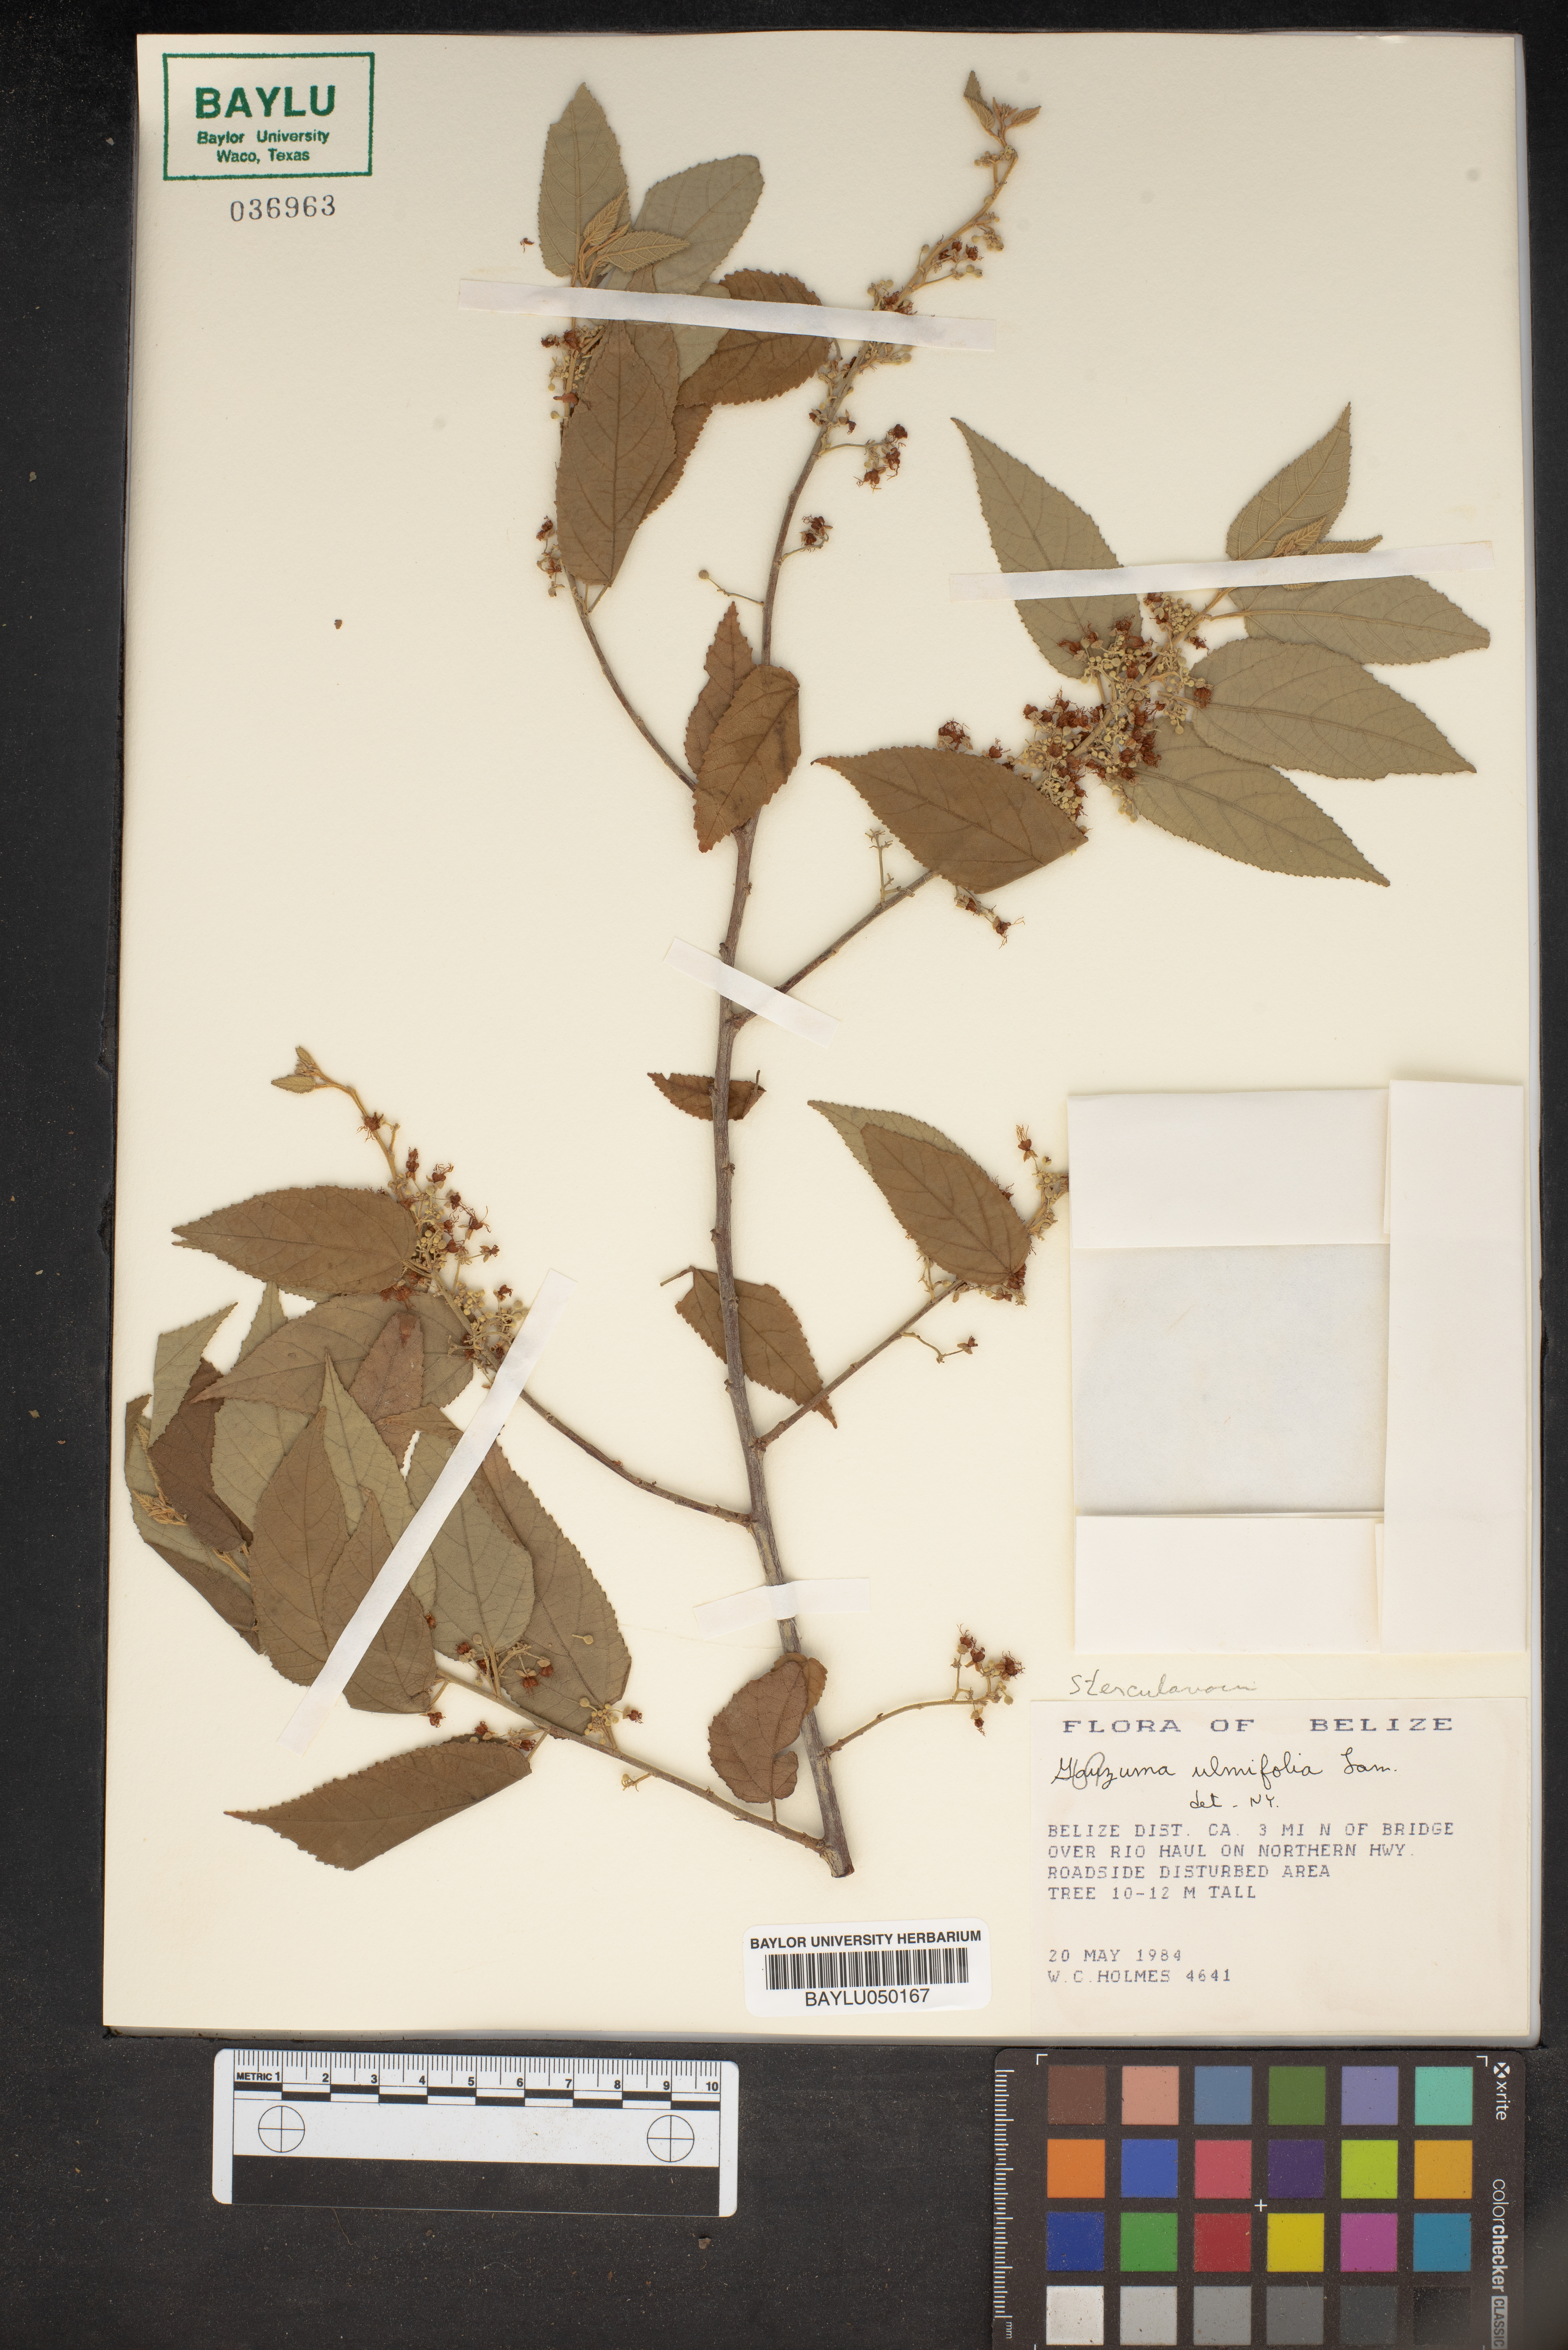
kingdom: Plantae
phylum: Tracheophyta
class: Magnoliopsida
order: Malvales
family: Malvaceae
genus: Guazuma
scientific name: Guazuma ulmifolia
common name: Bastard-cedar
